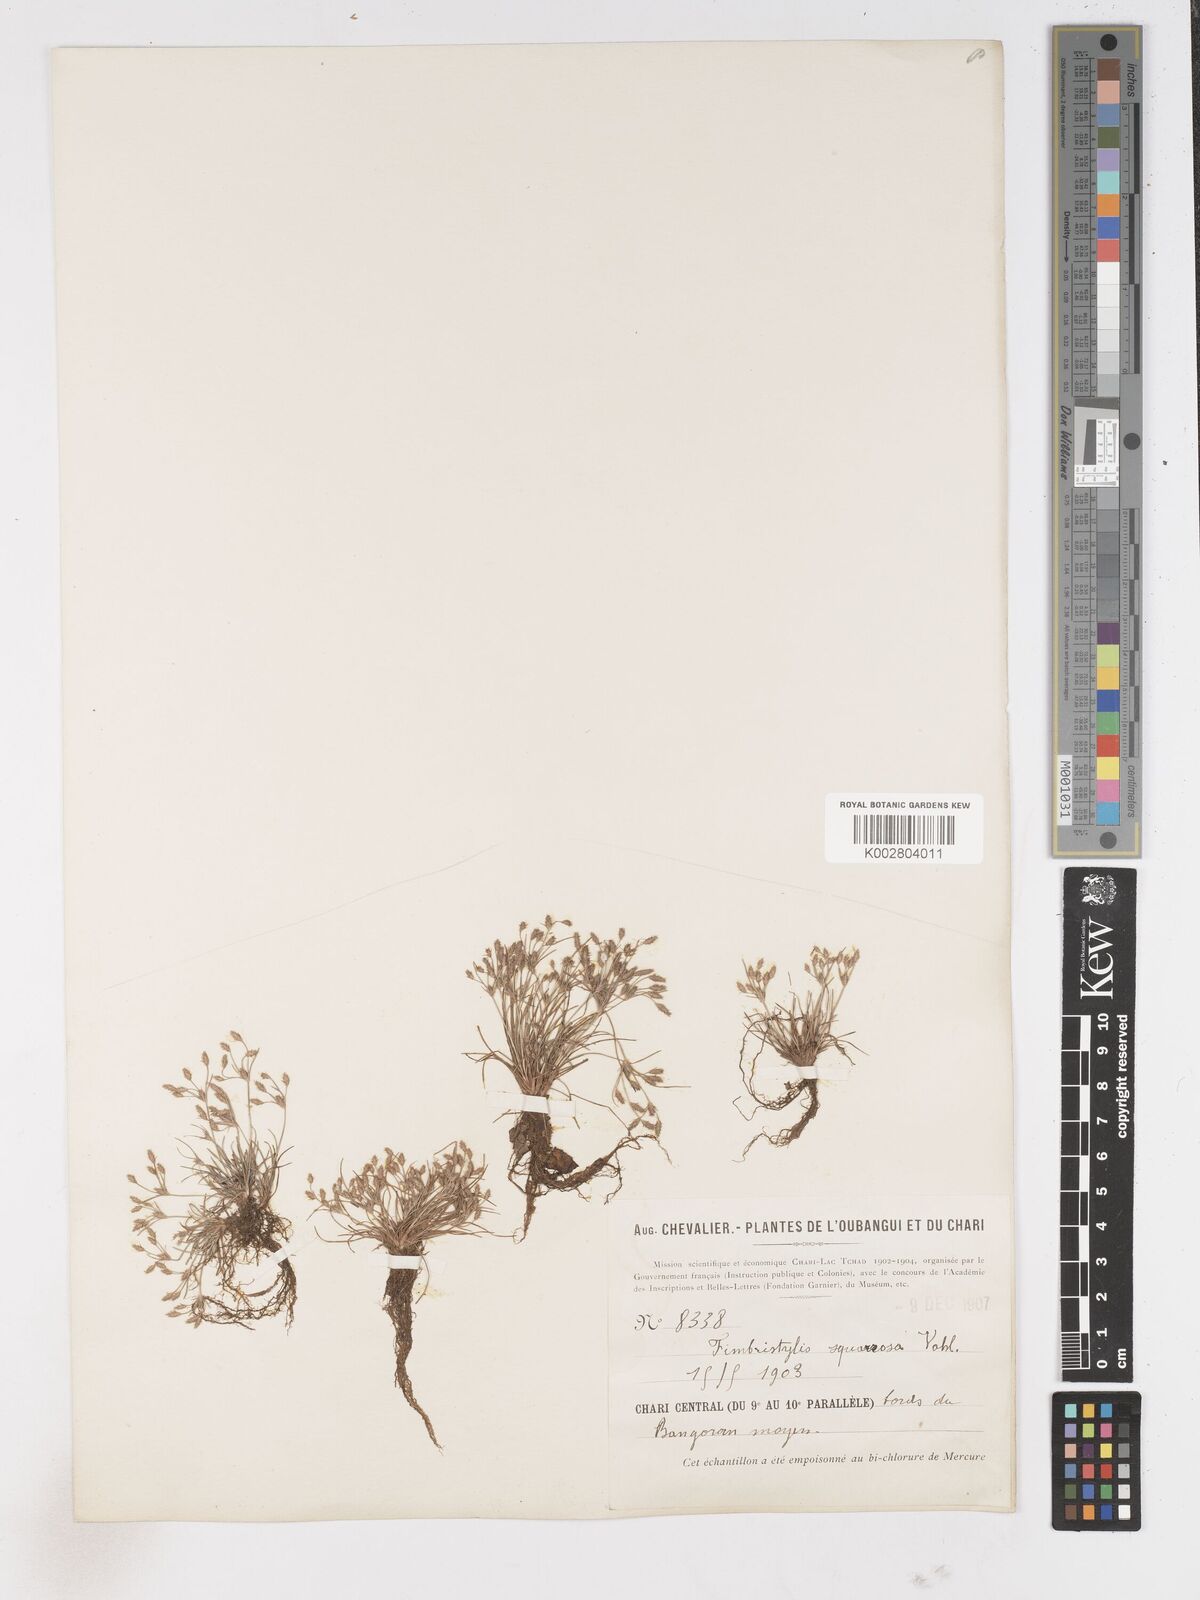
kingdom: Plantae
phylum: Tracheophyta
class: Liliopsida
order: Poales
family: Cyperaceae
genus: Fimbristylis
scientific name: Fimbristylis squarrosa
